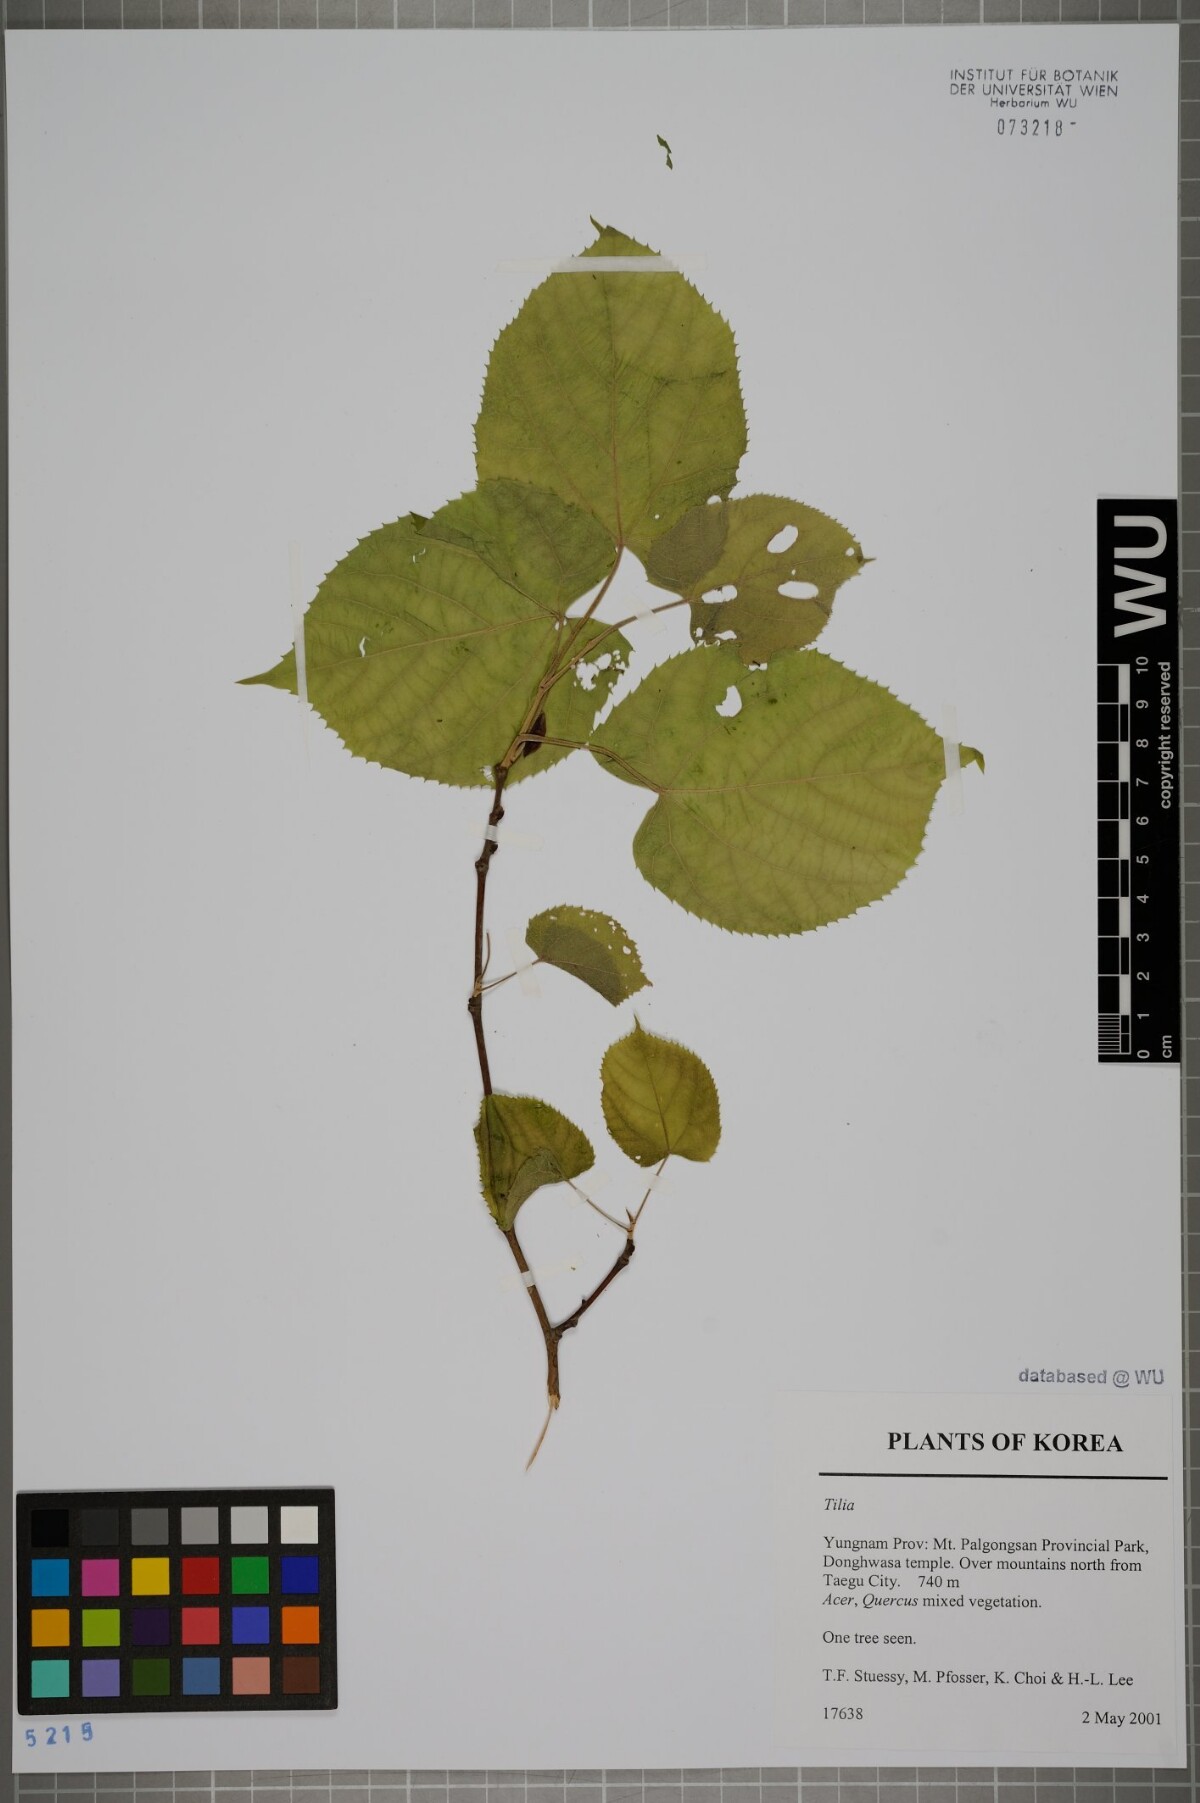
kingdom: Plantae
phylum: Tracheophyta
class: Magnoliopsida
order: Malvales
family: Malvaceae
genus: Tilia
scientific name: Tilia
